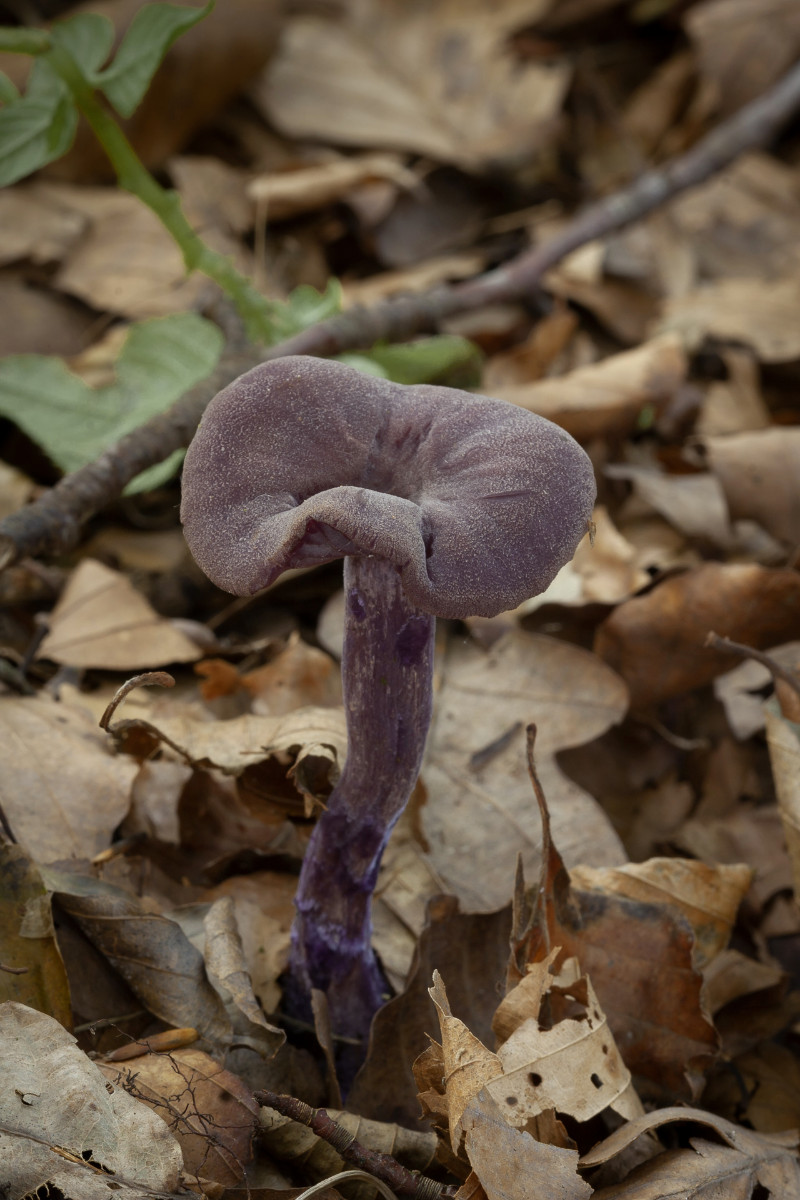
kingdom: Fungi
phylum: Basidiomycota
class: Agaricomycetes
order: Agaricales
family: Hydnangiaceae
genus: Laccaria
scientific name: Laccaria amethystina
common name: violet ametysthat
